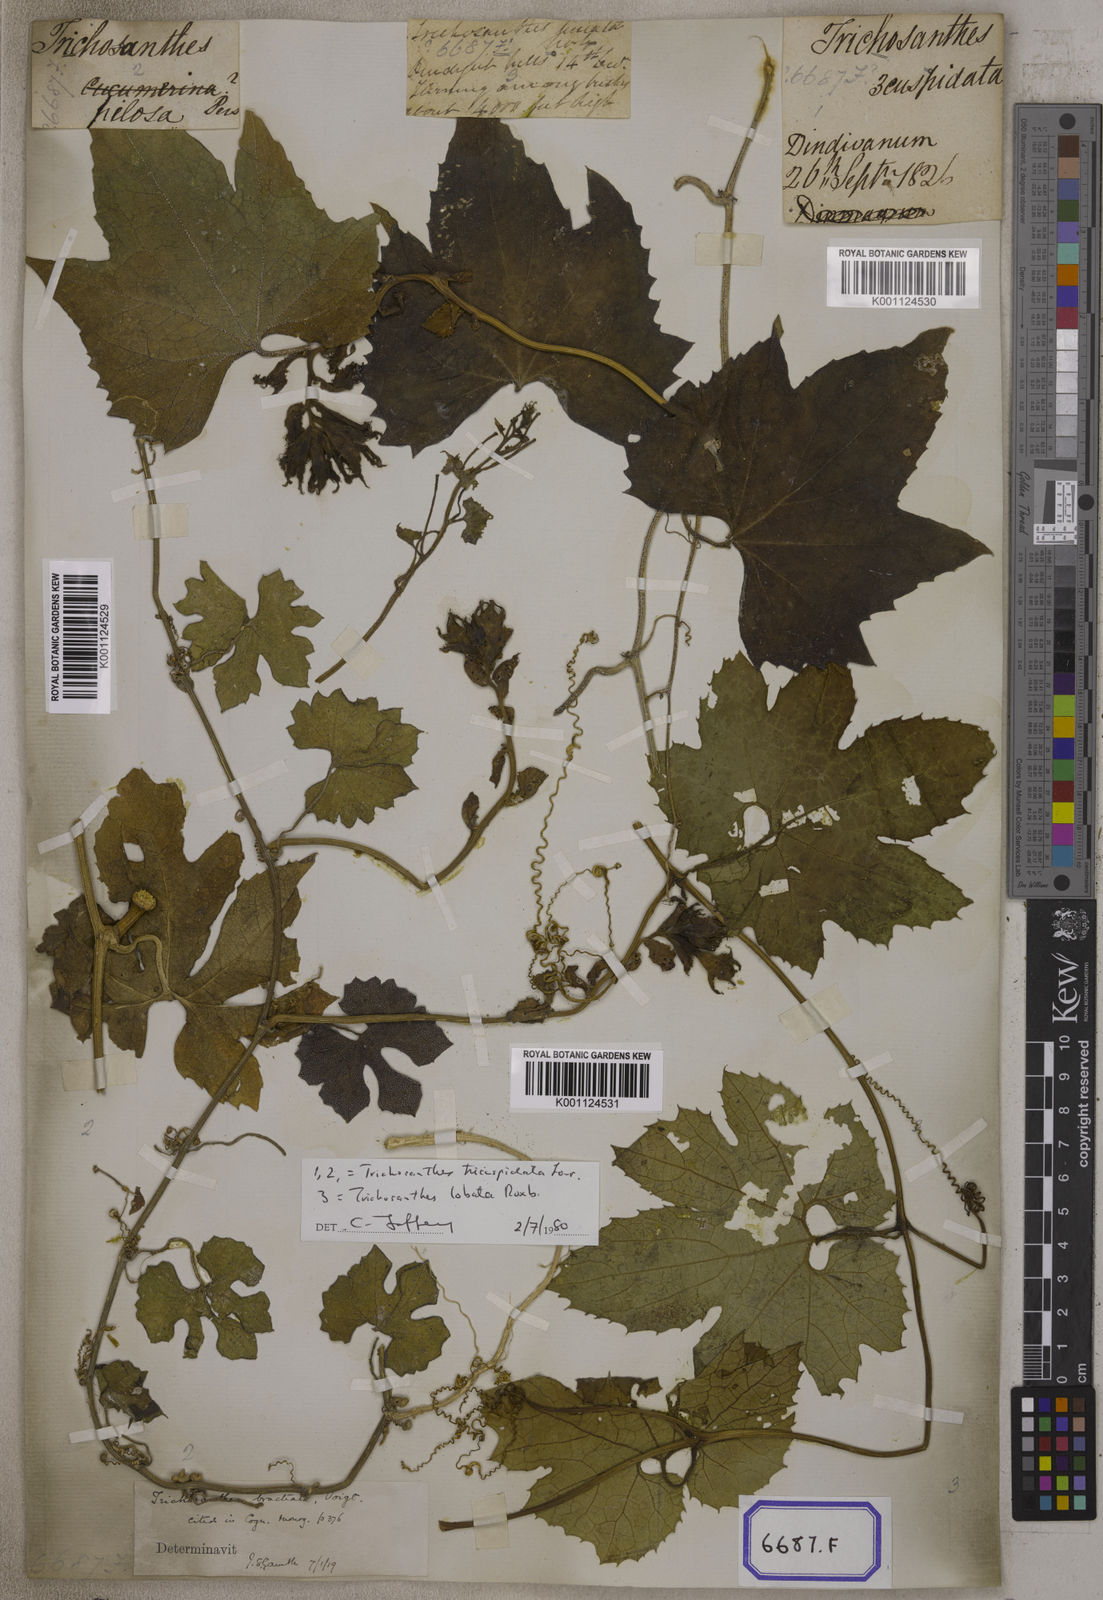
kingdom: Plantae
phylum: Tracheophyta
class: Magnoliopsida
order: Cucurbitales
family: Cucurbitaceae
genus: Trichosanthes
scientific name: Trichosanthes cucumerina
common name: Snakegourd
